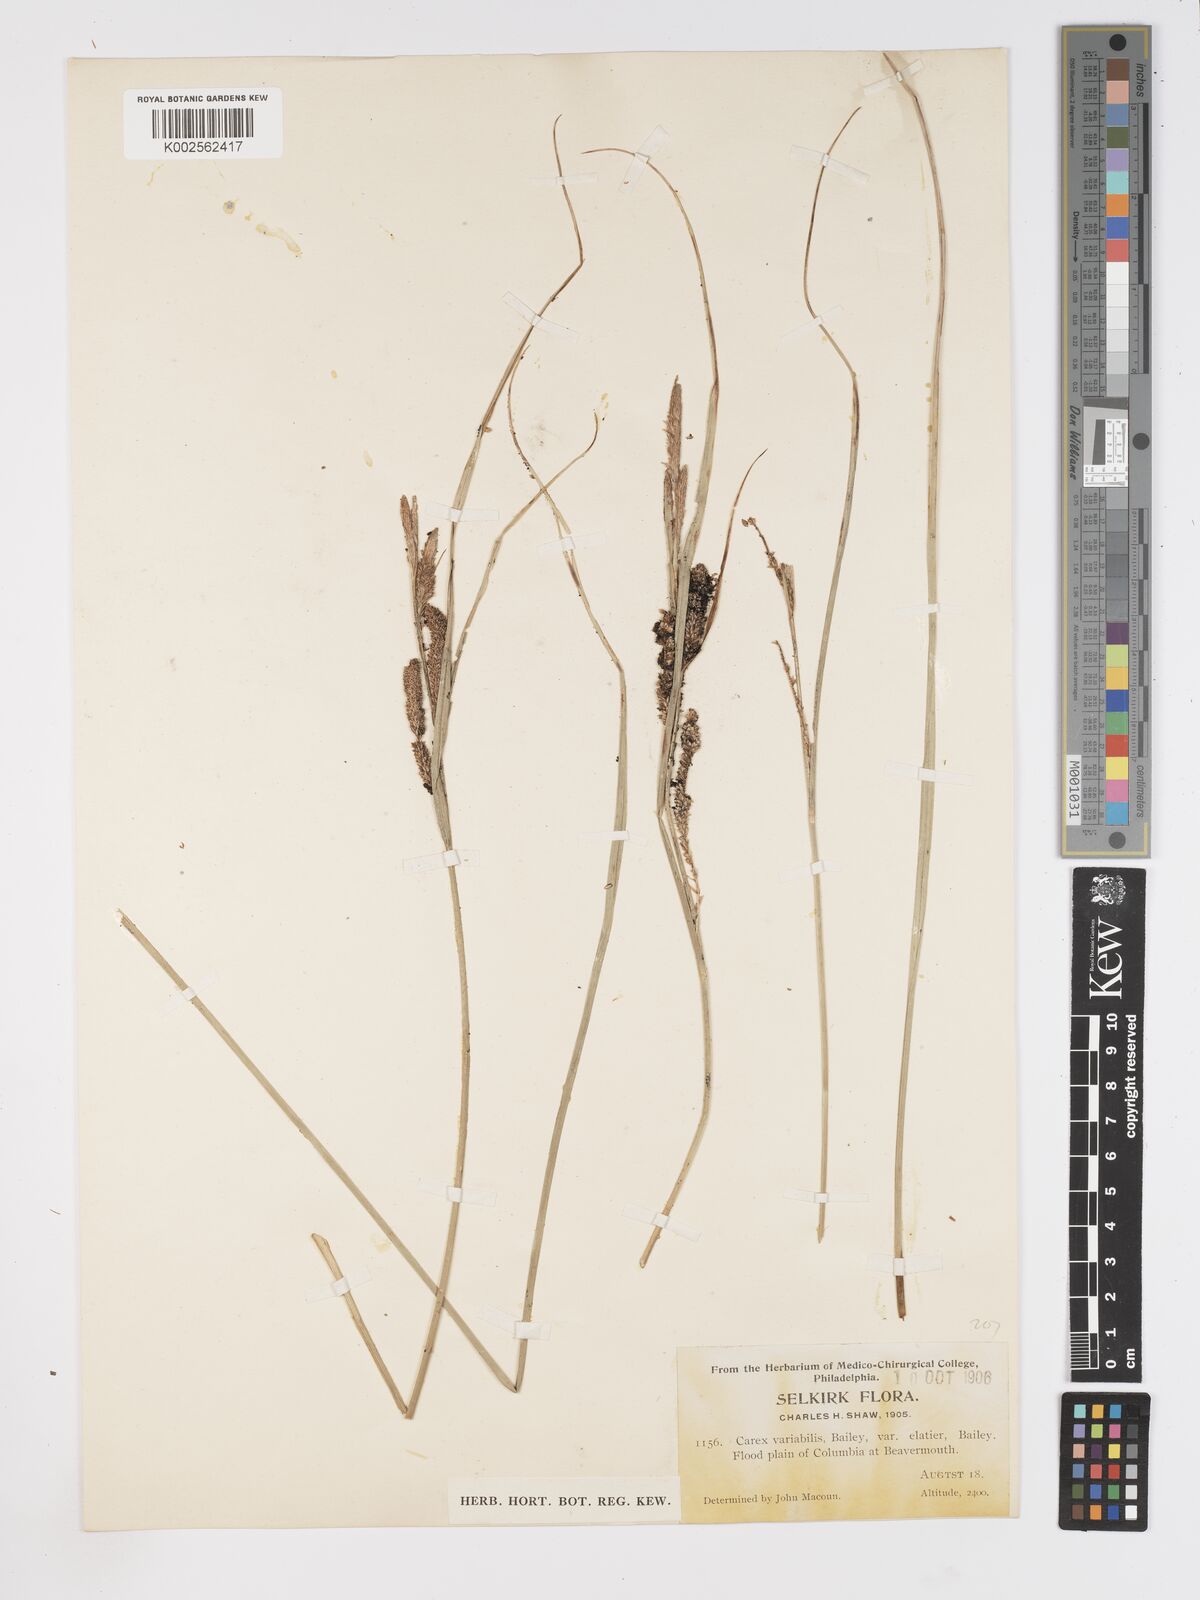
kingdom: Plantae
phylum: Tracheophyta
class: Liliopsida
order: Poales
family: Cyperaceae
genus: Carex
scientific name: Carex aquatilis
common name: Water sedge
